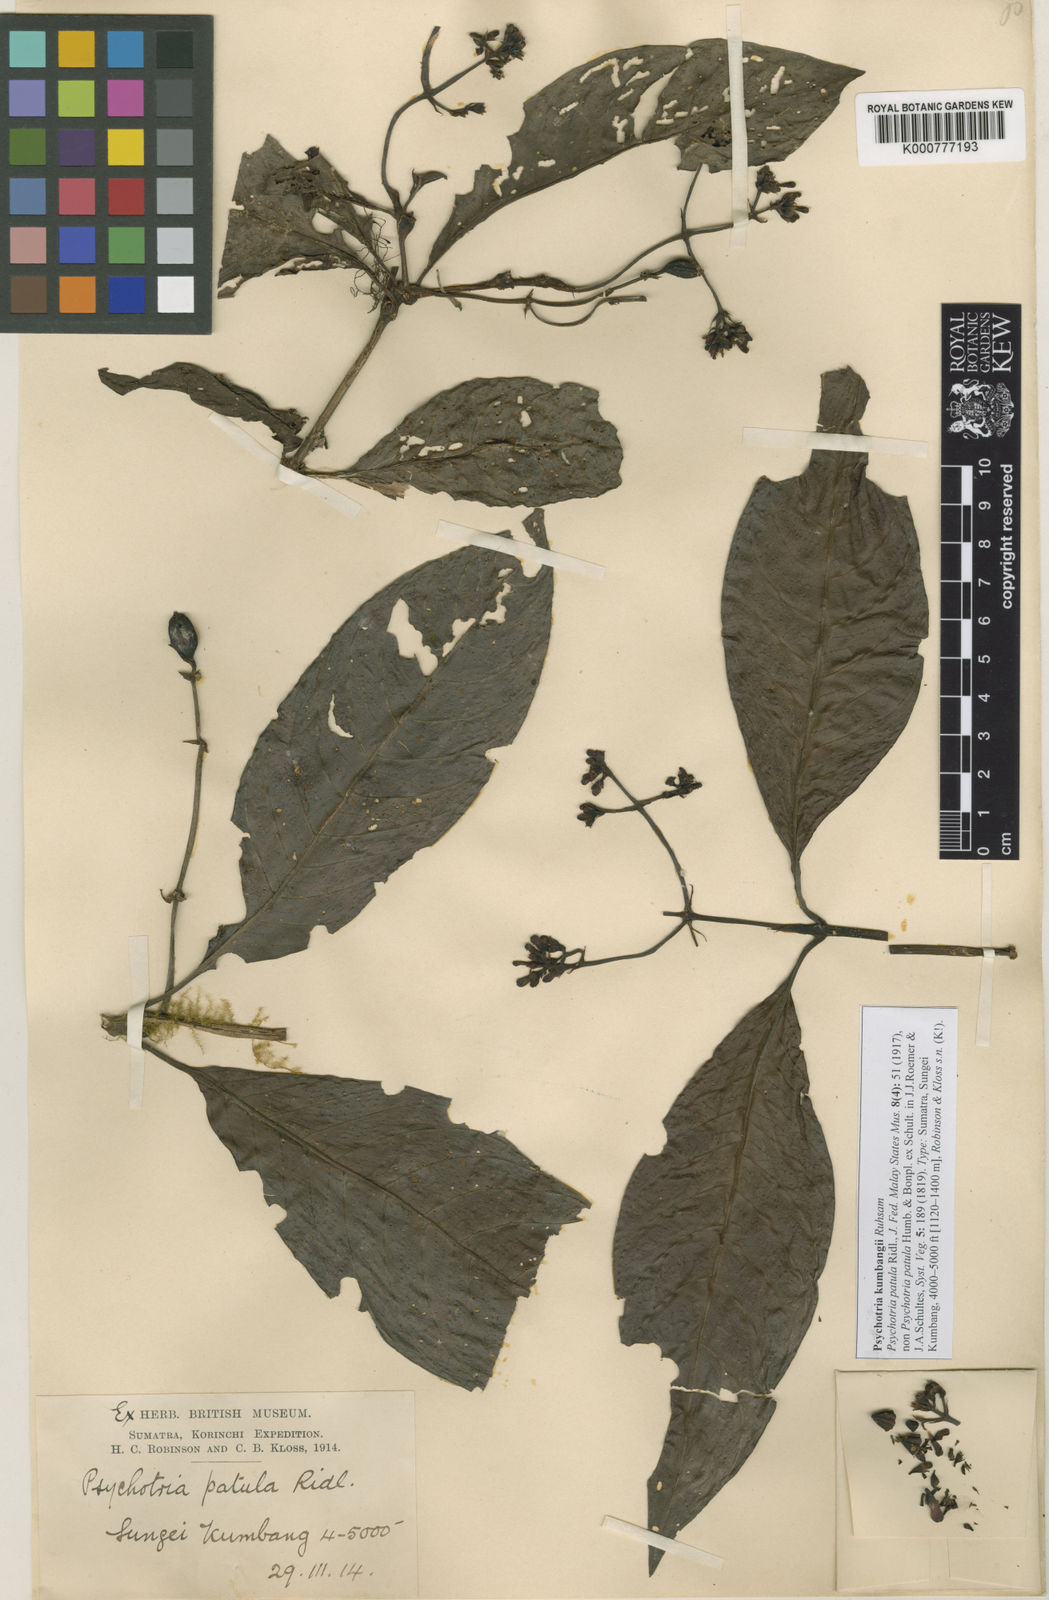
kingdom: Plantae
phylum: Tracheophyta
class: Magnoliopsida
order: Gentianales
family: Rubiaceae
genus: Psychotria
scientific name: Psychotria kumbangii
